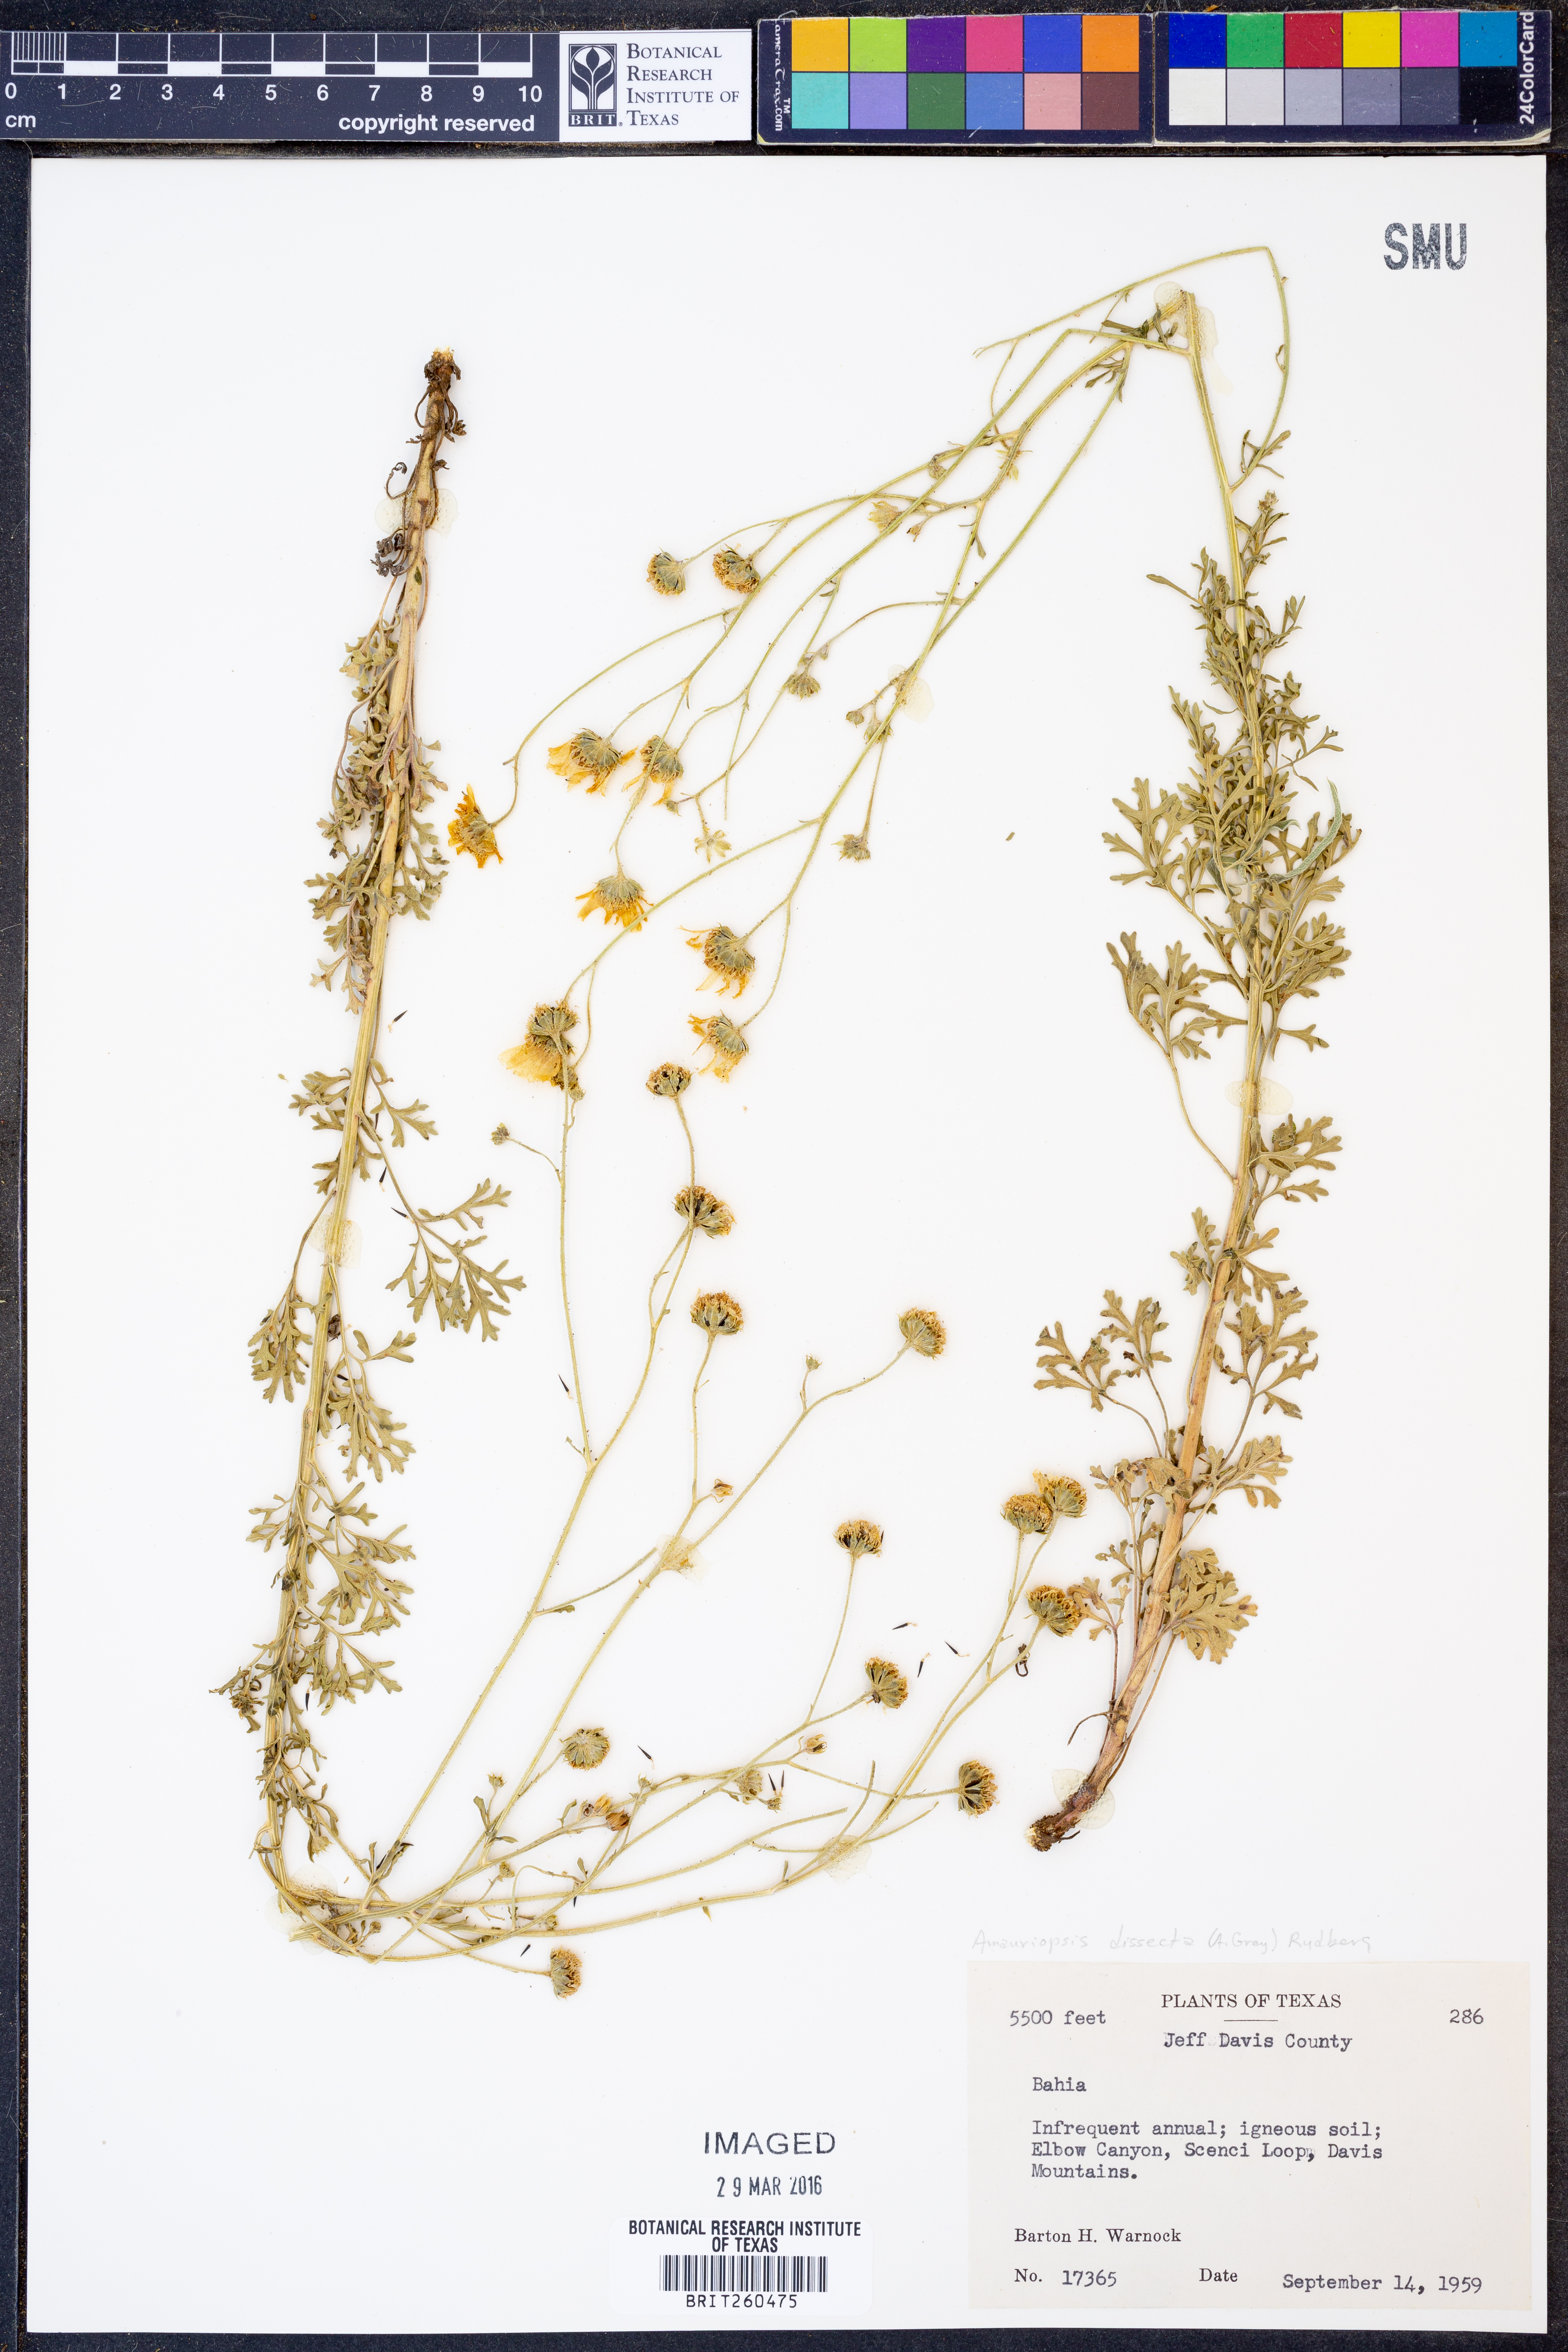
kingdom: Plantae
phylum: Tracheophyta
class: Magnoliopsida
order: Asterales
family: Asteraceae
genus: Hymenothrix
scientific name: Hymenothrix dissecta
